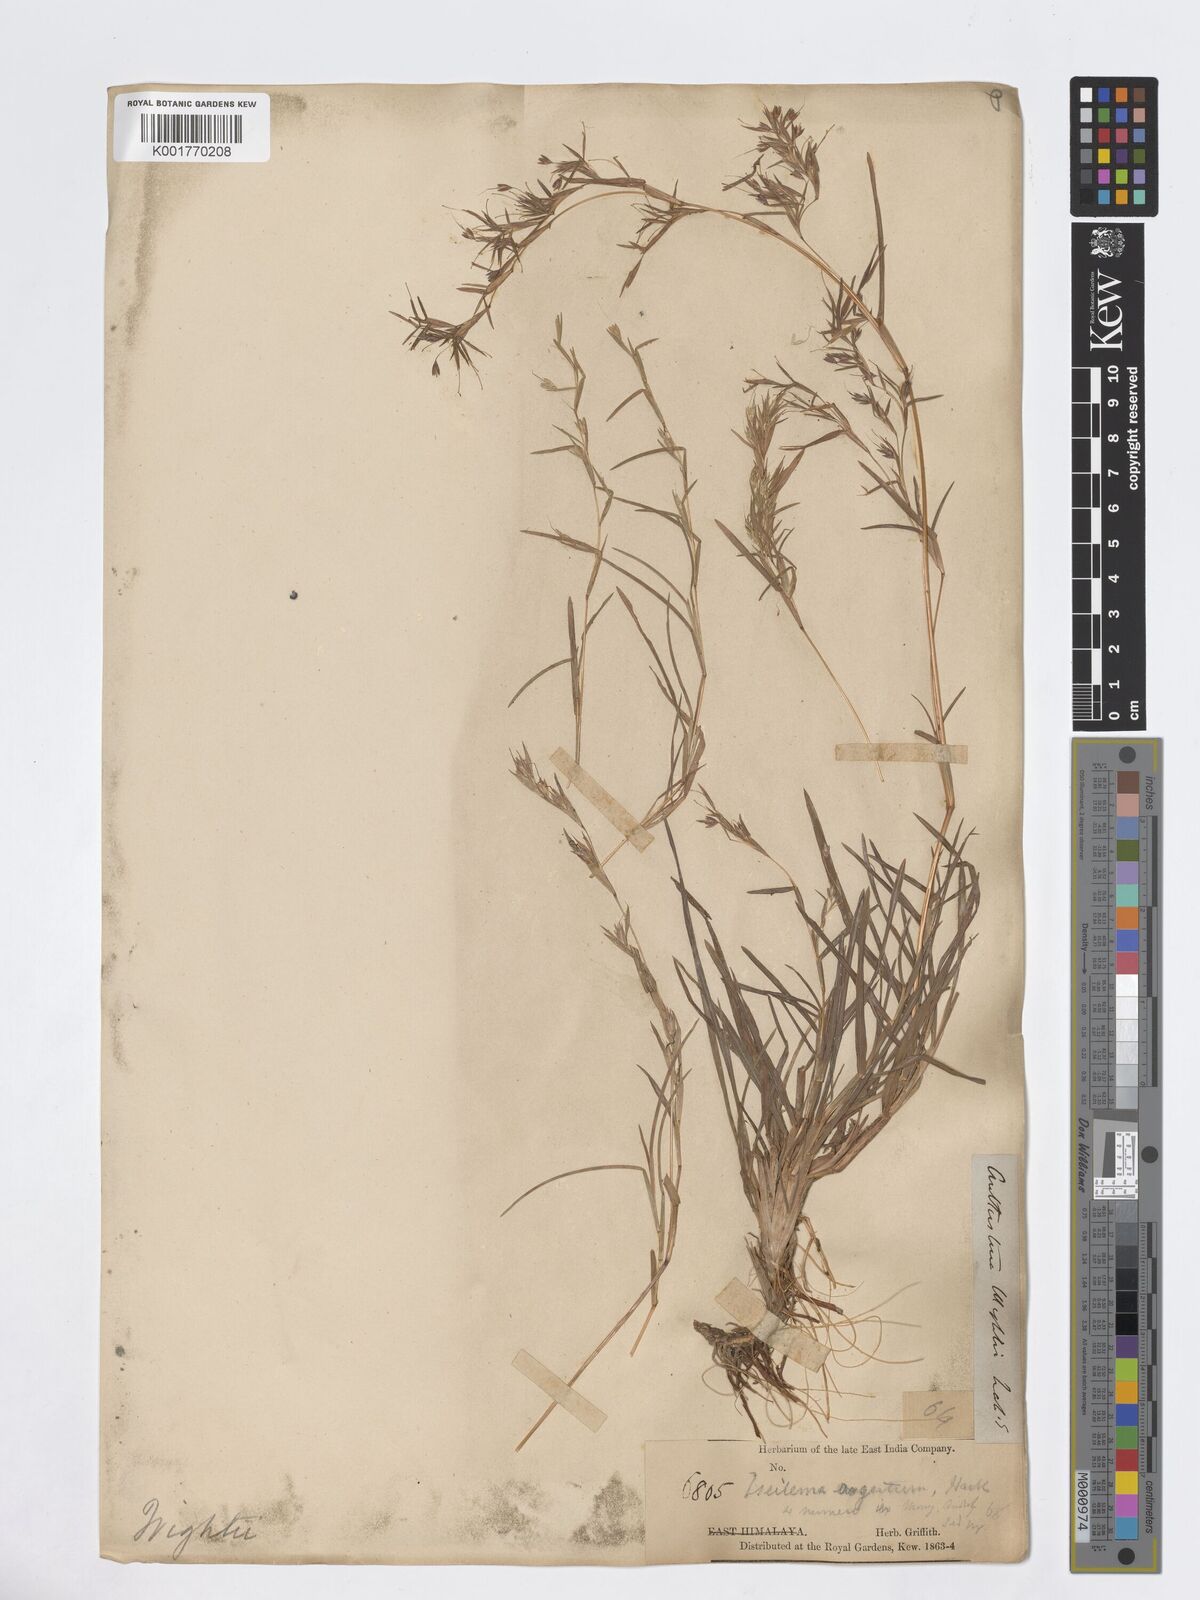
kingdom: Plantae
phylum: Tracheophyta
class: Liliopsida
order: Poales
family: Poaceae
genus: Iseilema
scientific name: Iseilema prostratum
